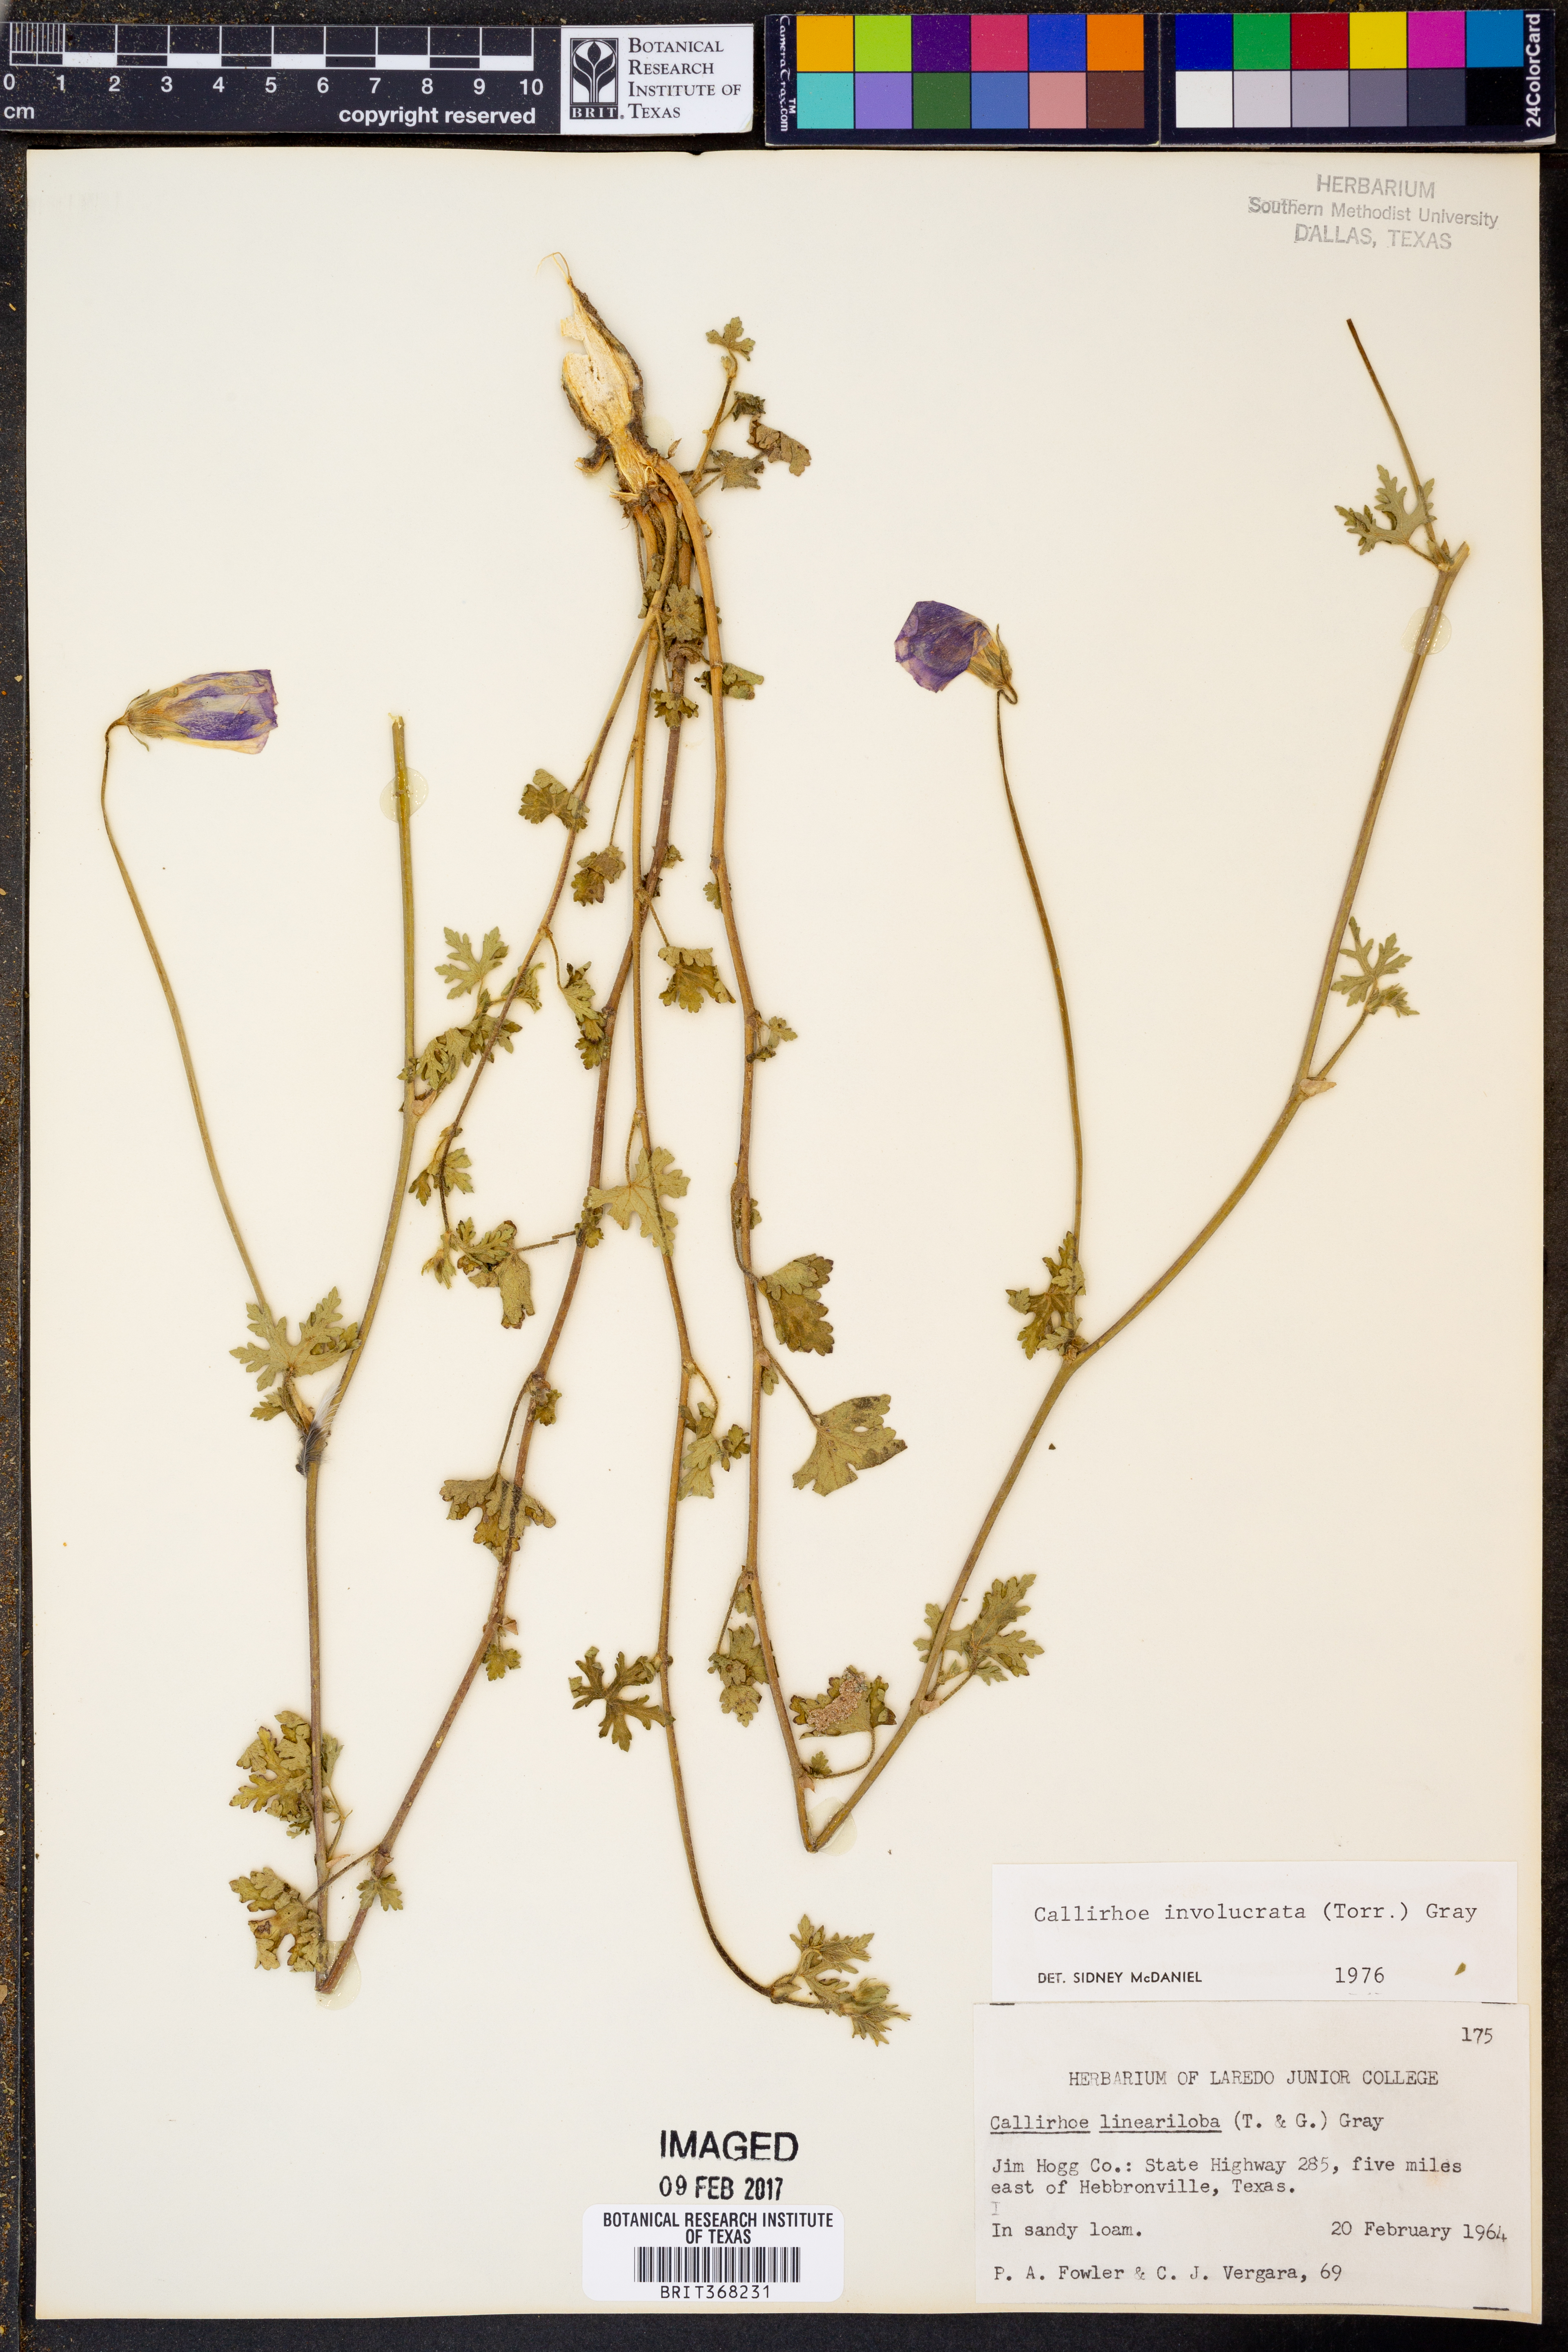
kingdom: Plantae
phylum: Tracheophyta
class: Magnoliopsida
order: Malvales
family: Malvaceae
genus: Callirhoe
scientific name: Callirhoe involucrata
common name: Purple poppy-mallow
